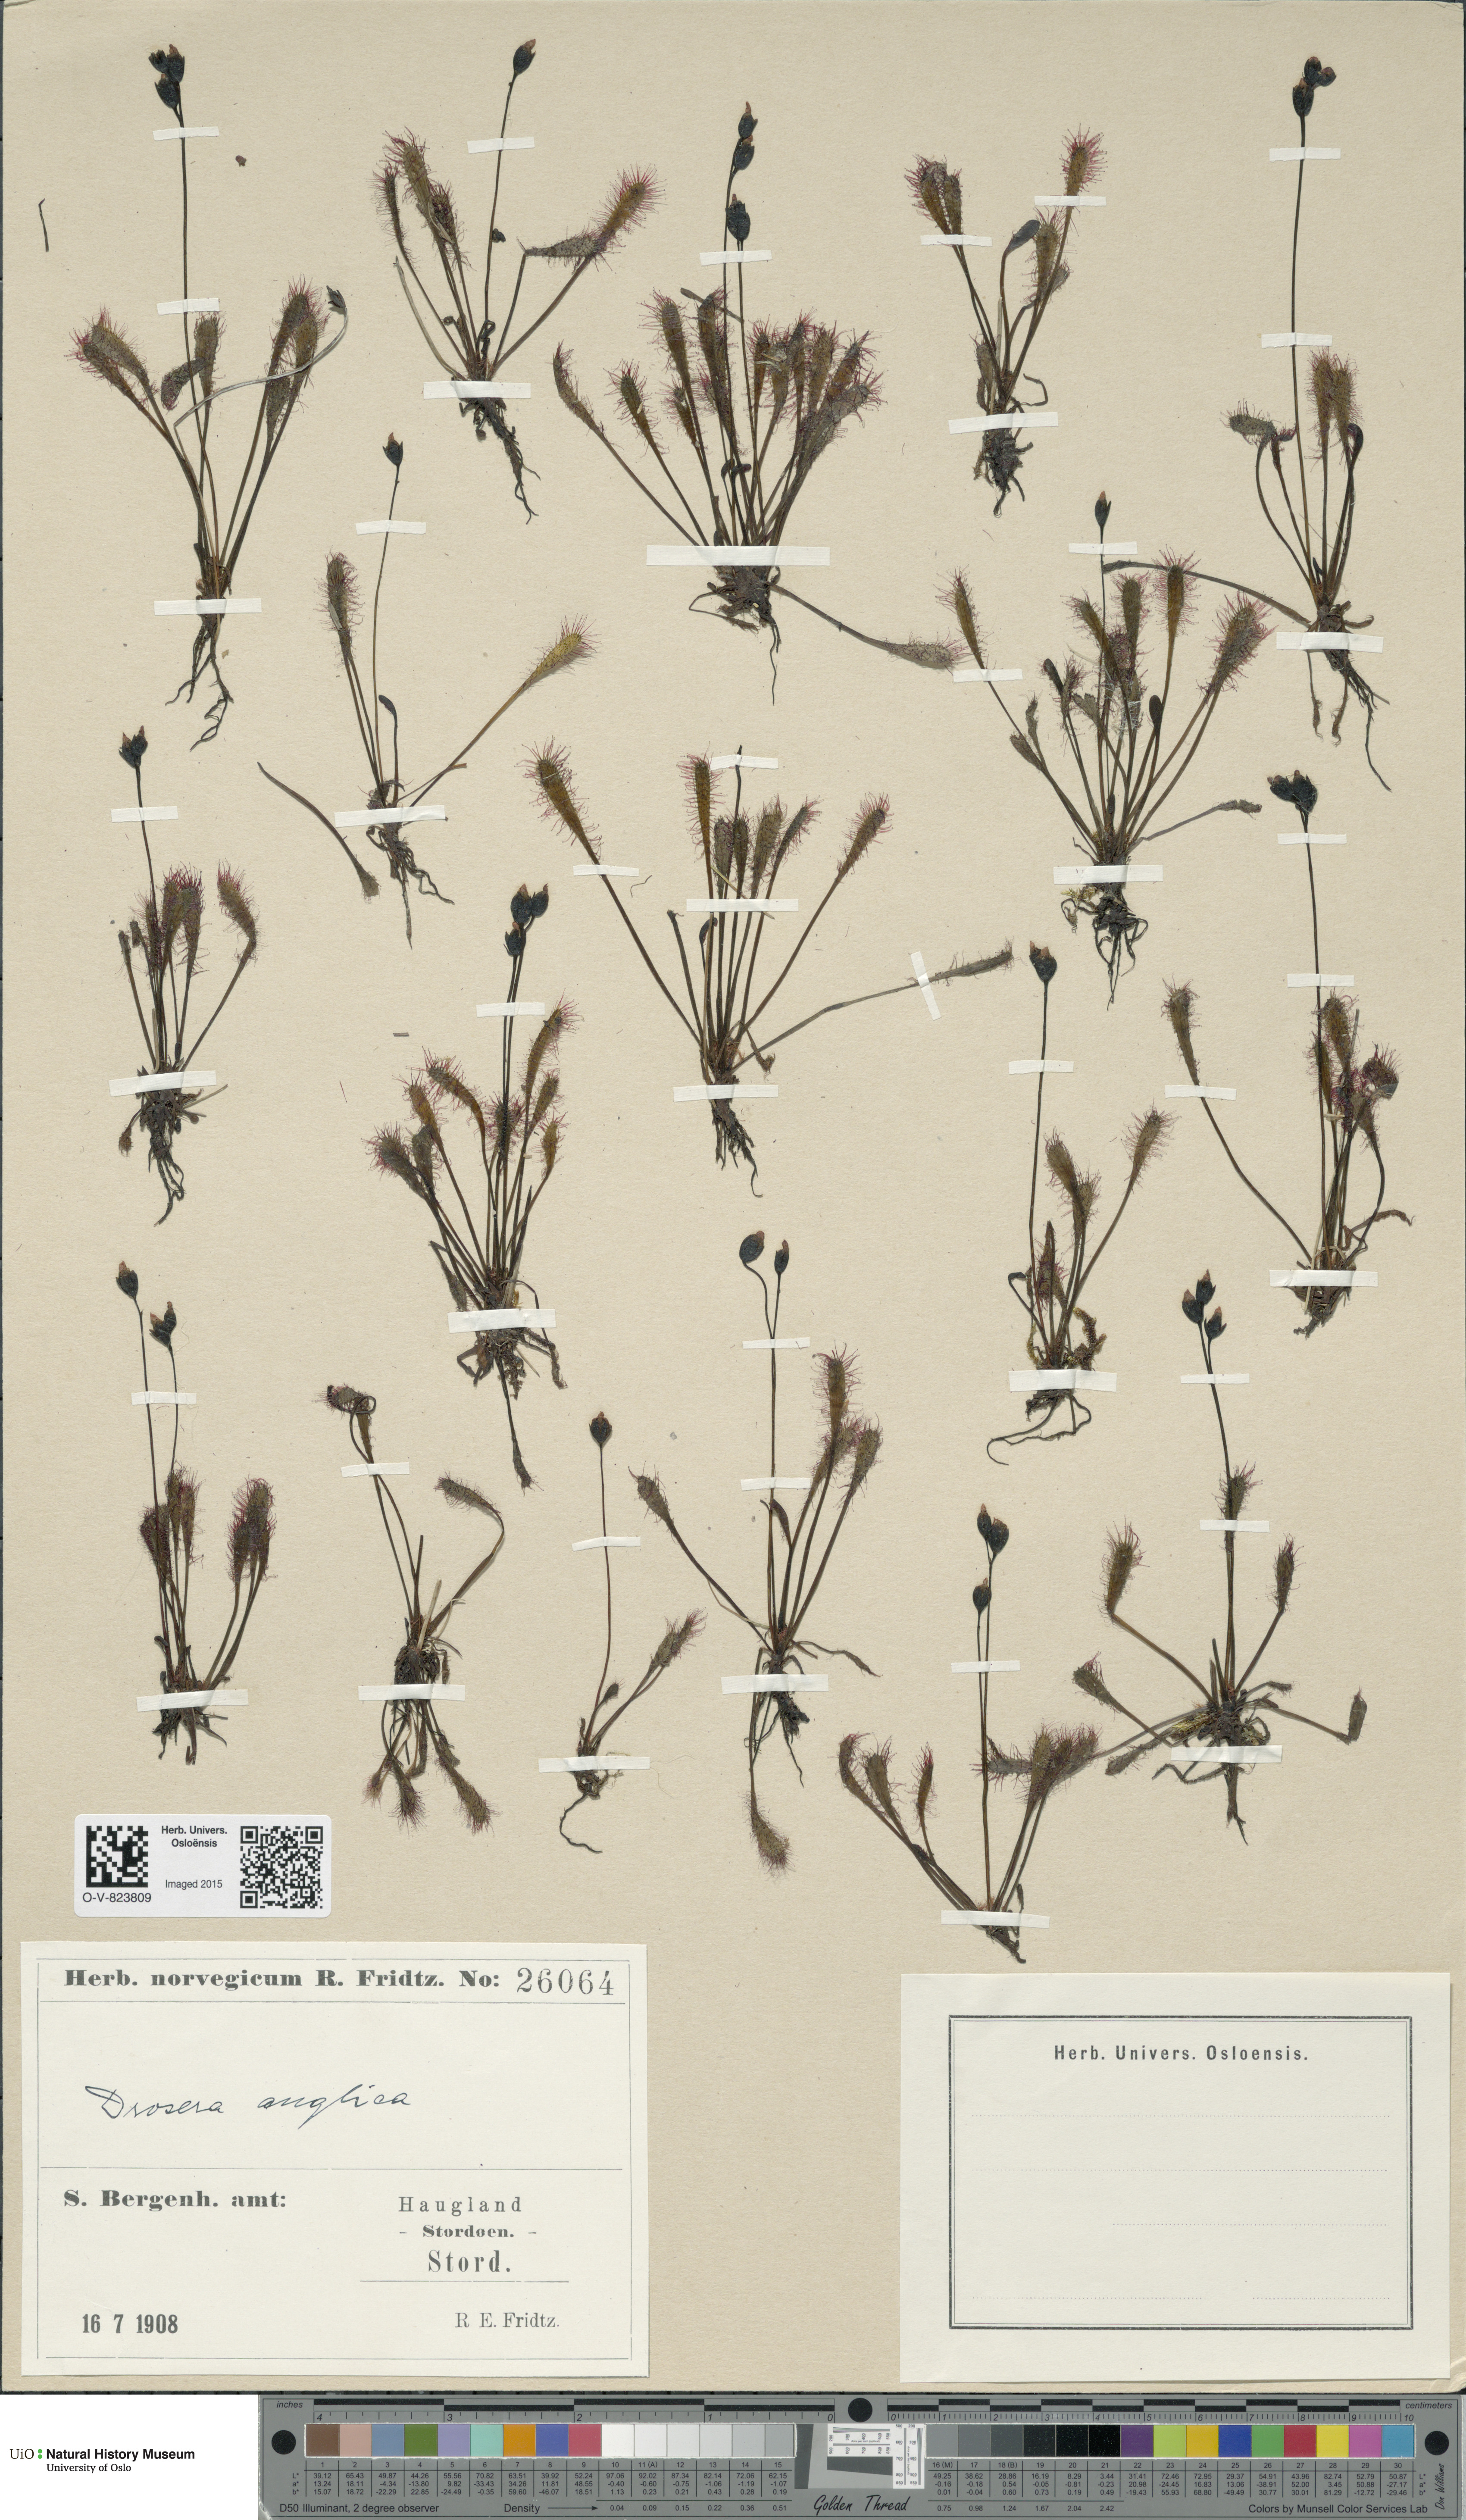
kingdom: Plantae
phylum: Tracheophyta
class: Magnoliopsida
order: Caryophyllales
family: Droseraceae
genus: Drosera
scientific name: Drosera anglica
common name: Great sundew
